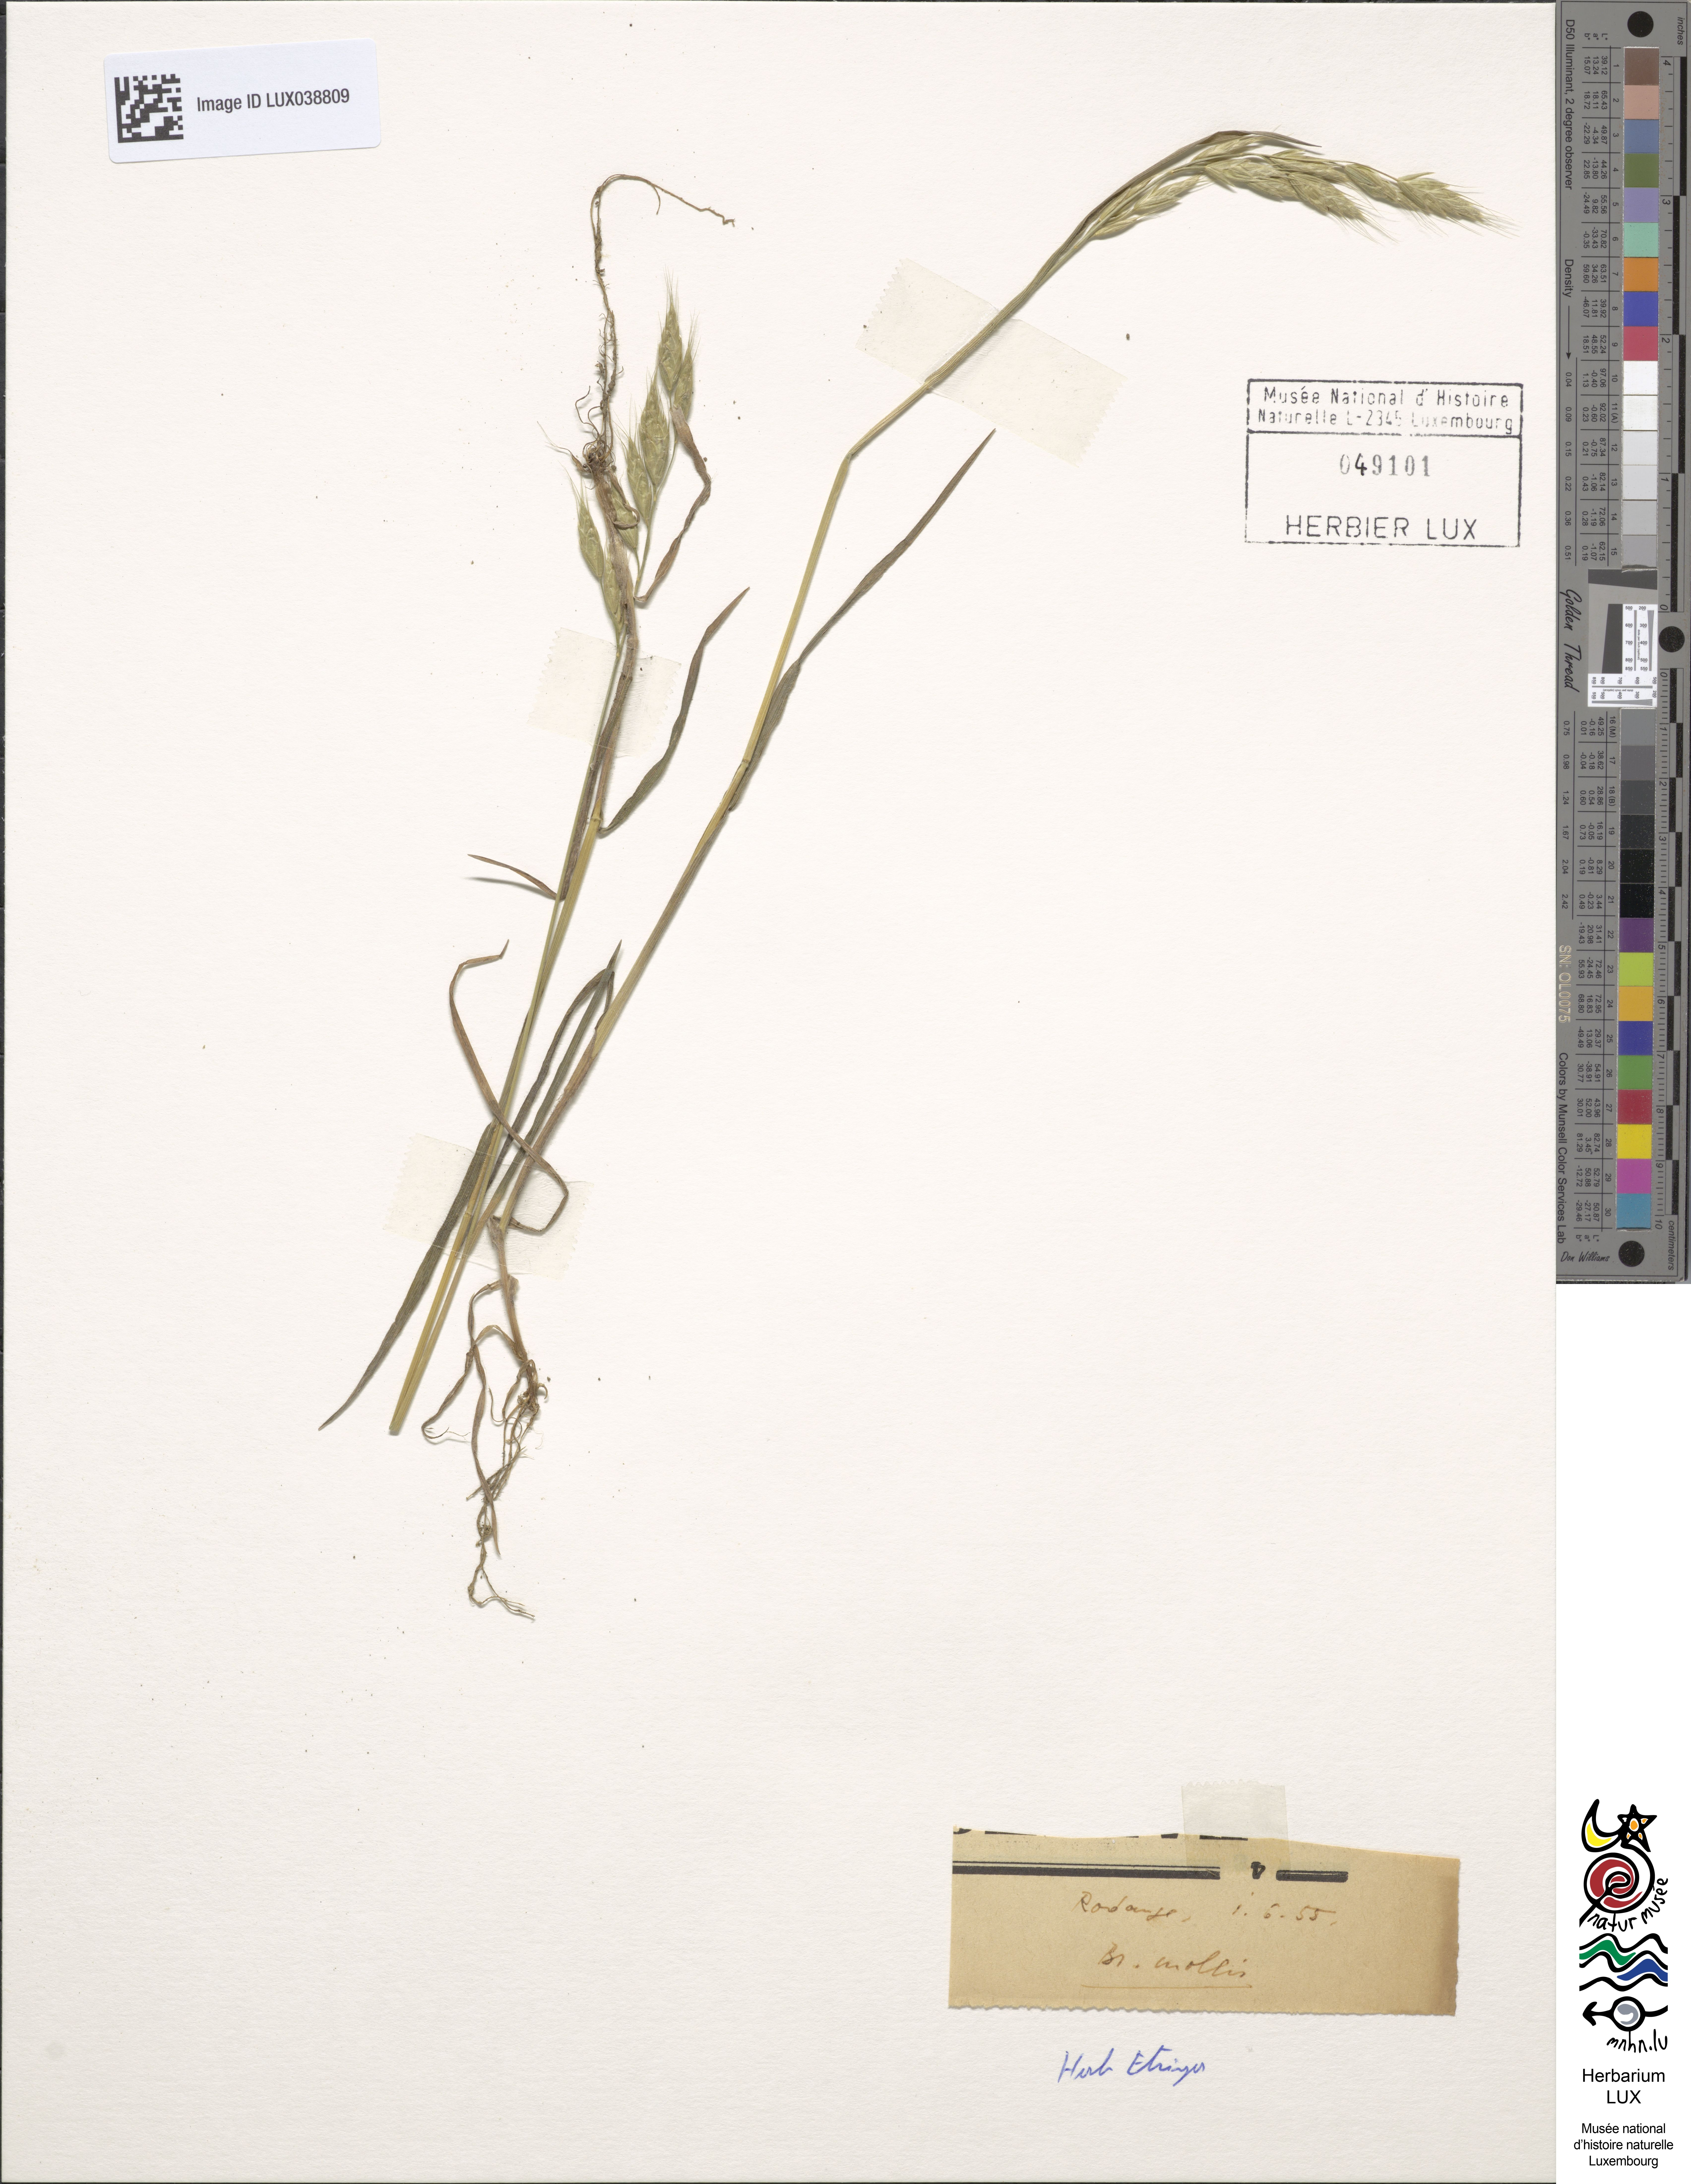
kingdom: Plantae
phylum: Tracheophyta
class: Liliopsida
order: Poales
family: Poaceae
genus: Bromus
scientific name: Bromus hordeaceus
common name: Soft brome
